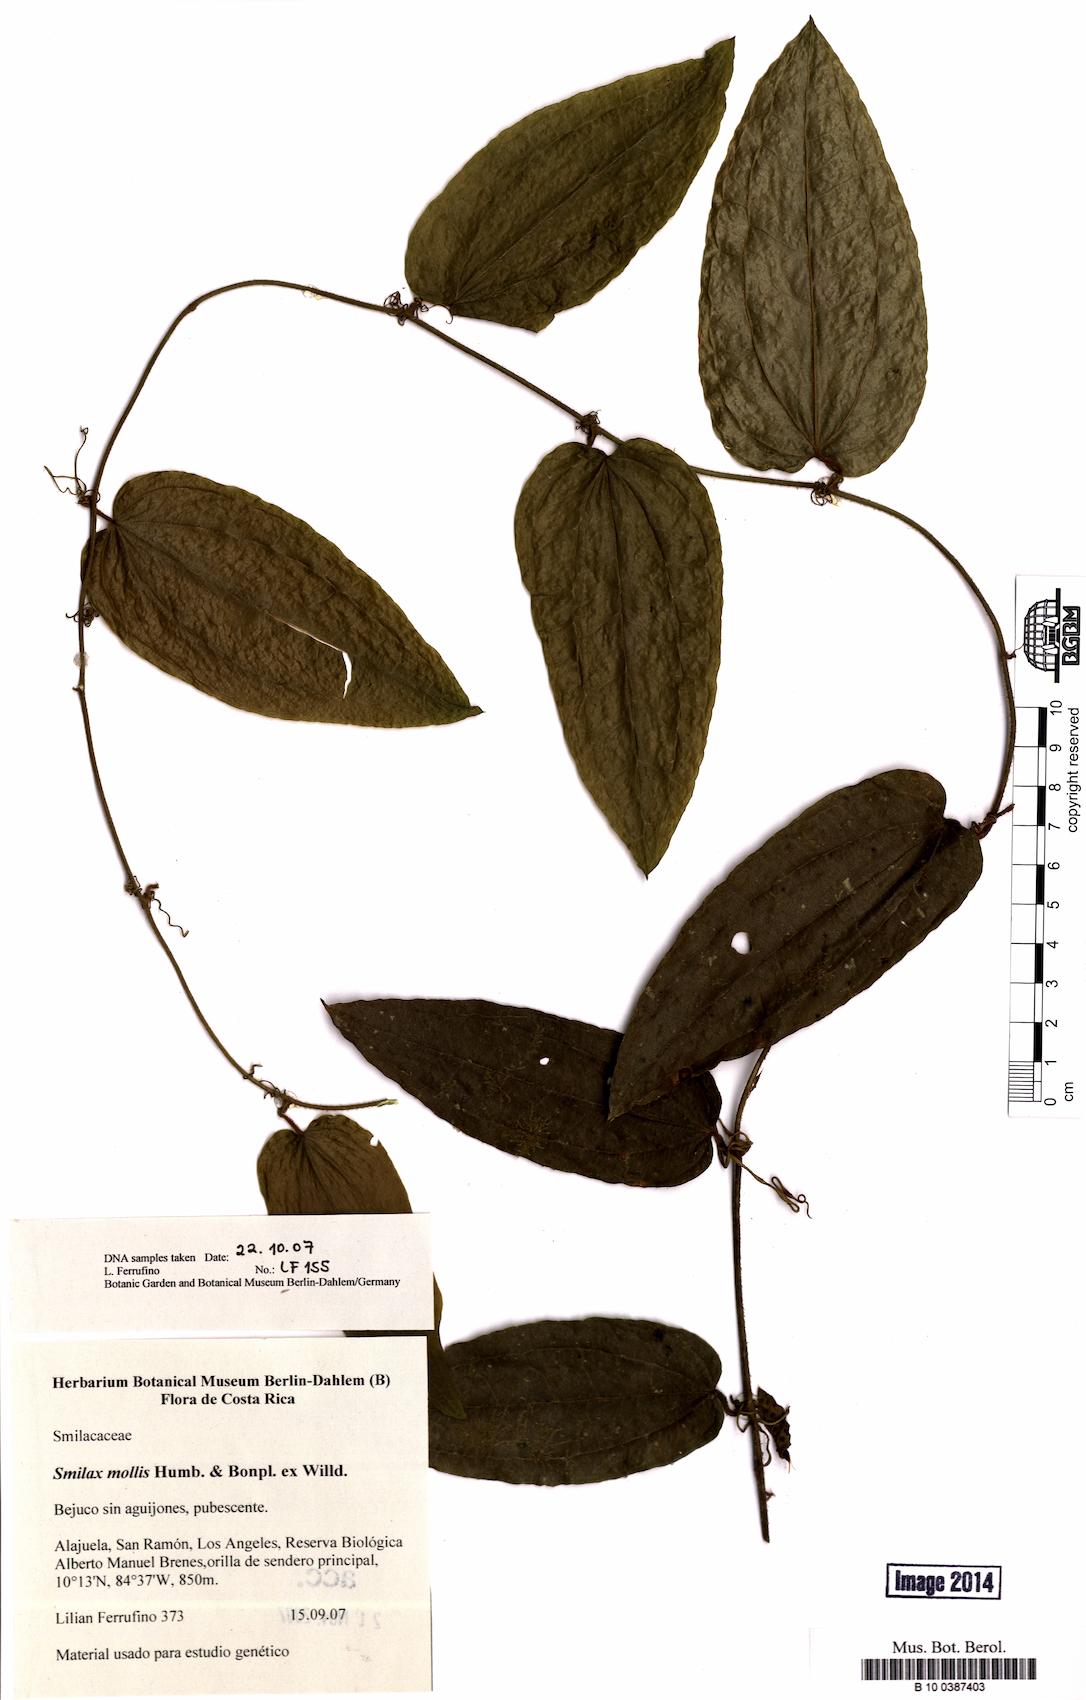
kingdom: Plantae
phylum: Tracheophyta
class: Liliopsida
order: Liliales
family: Smilacaceae
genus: Smilax
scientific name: Smilax mollis
